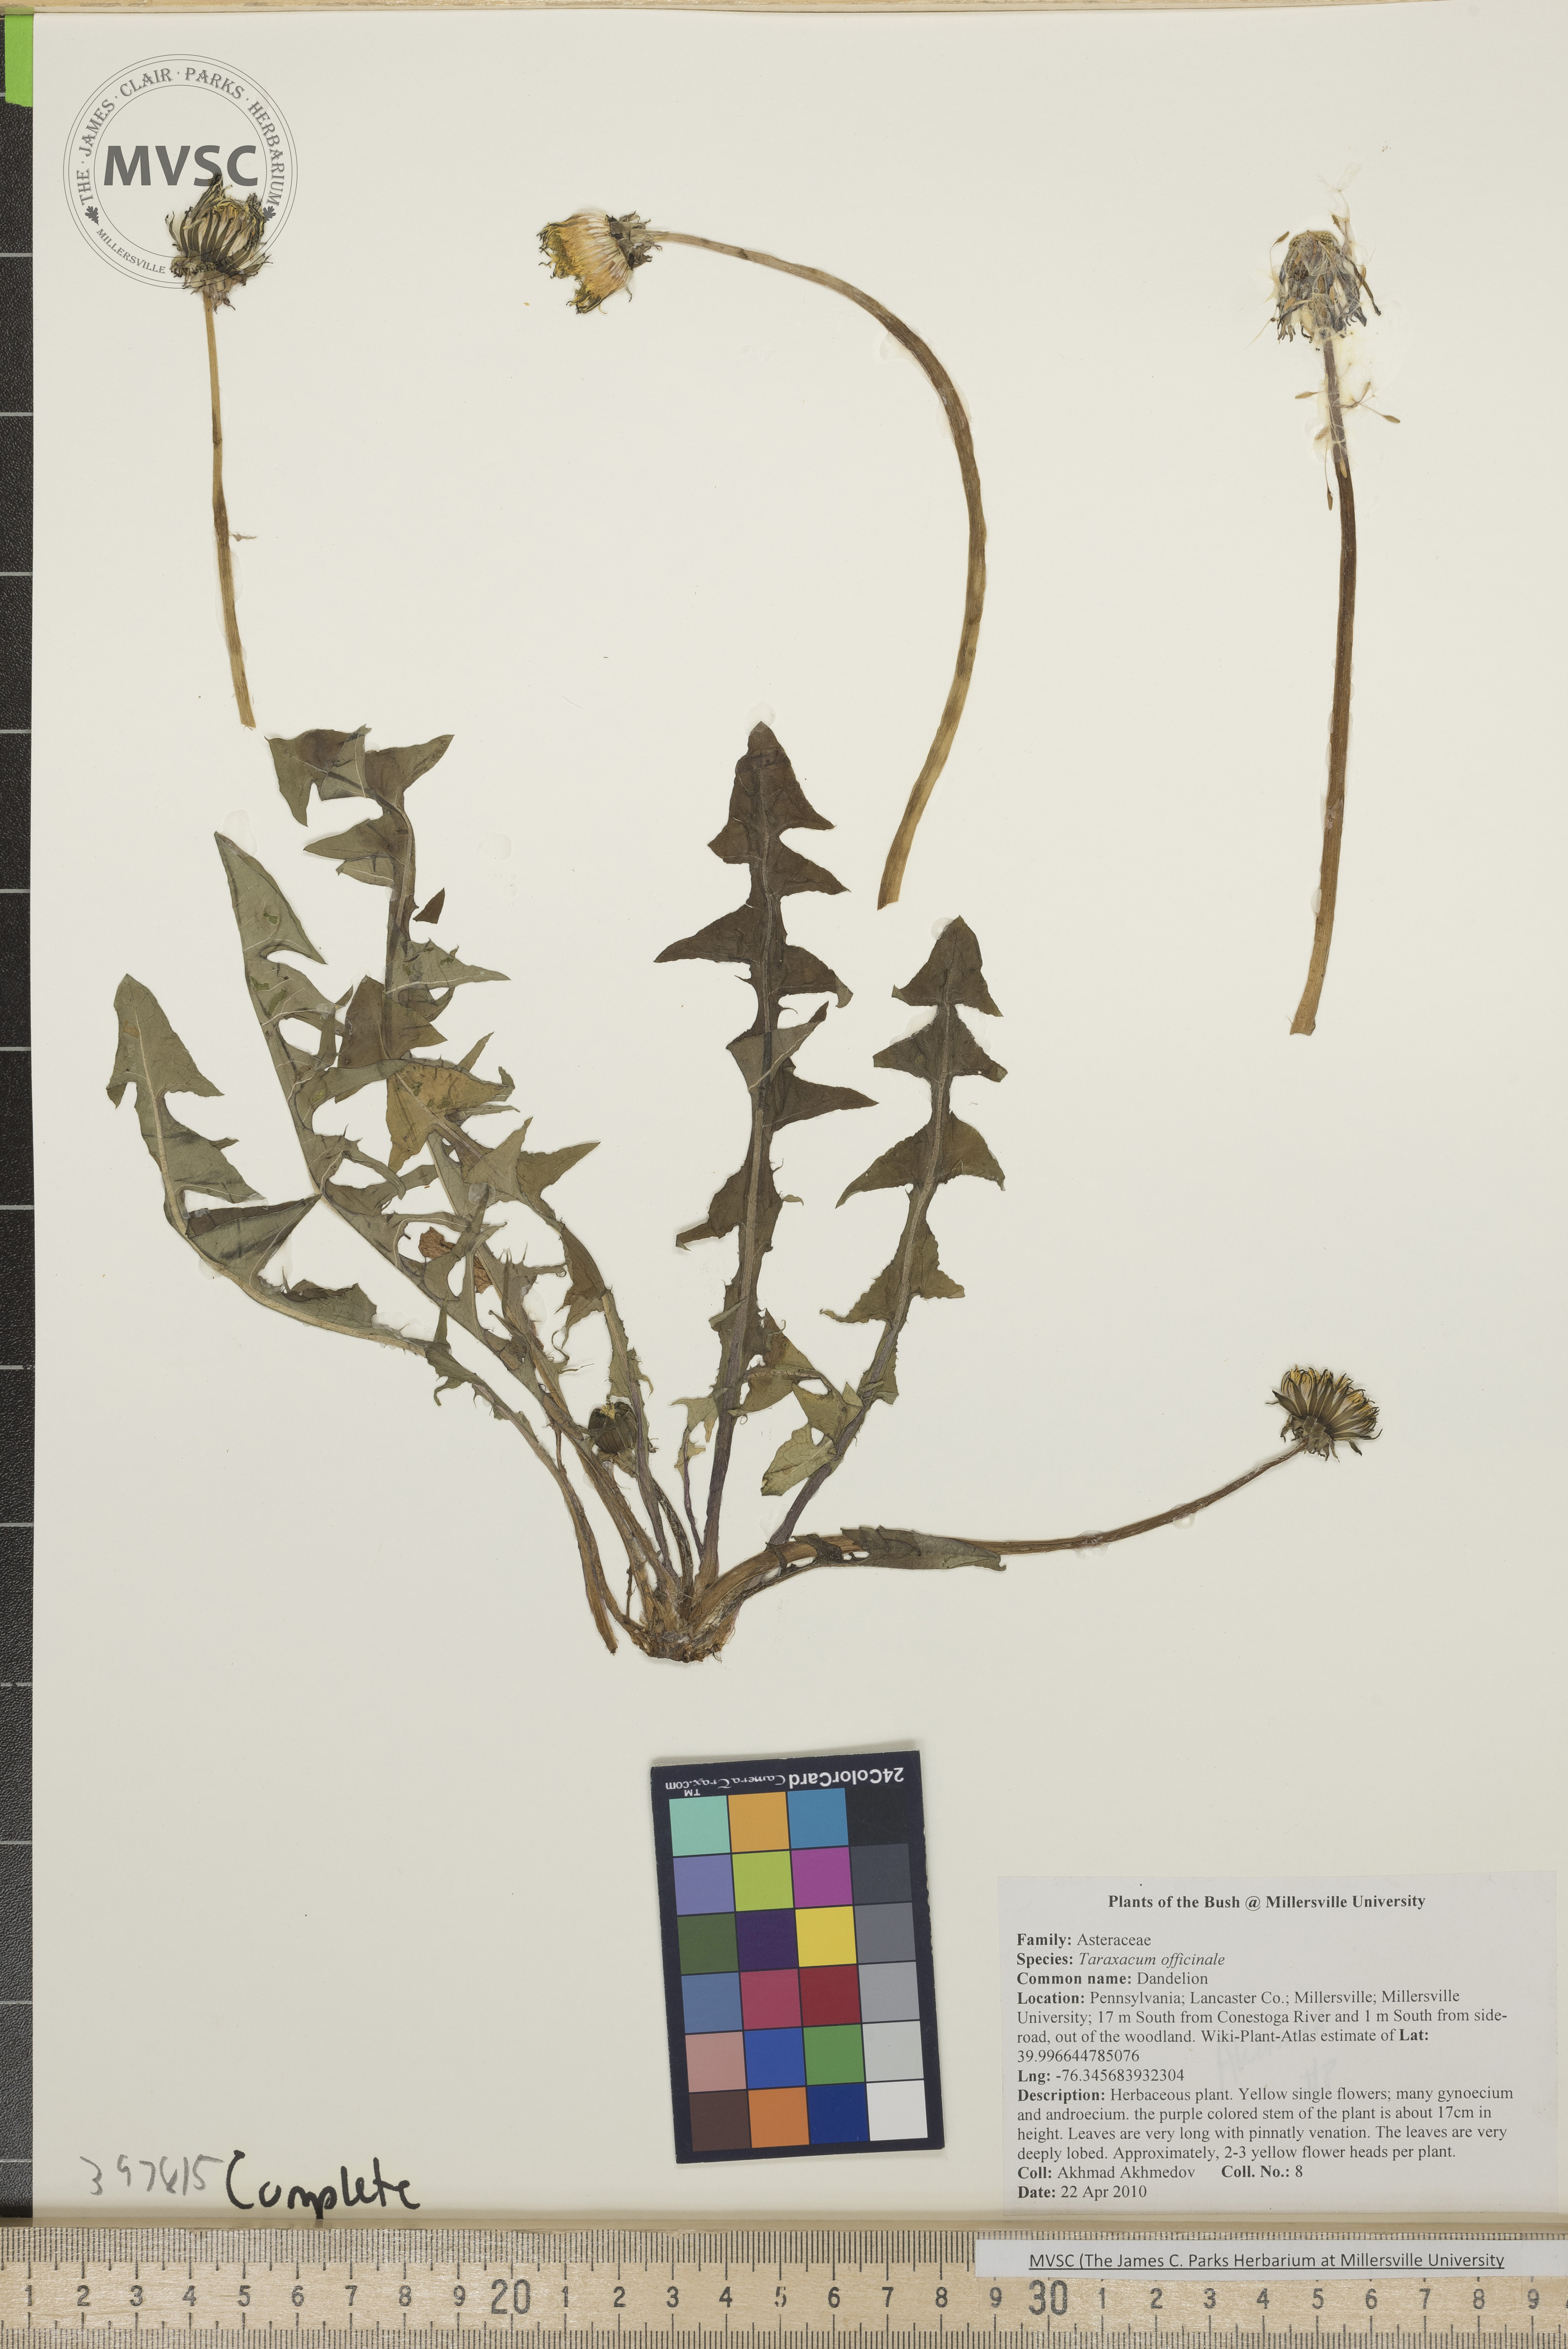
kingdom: Plantae
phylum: Tracheophyta
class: Magnoliopsida
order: Asterales
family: Asteraceae
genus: Taraxacum
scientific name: Taraxacum officinale
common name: Common dandelion
